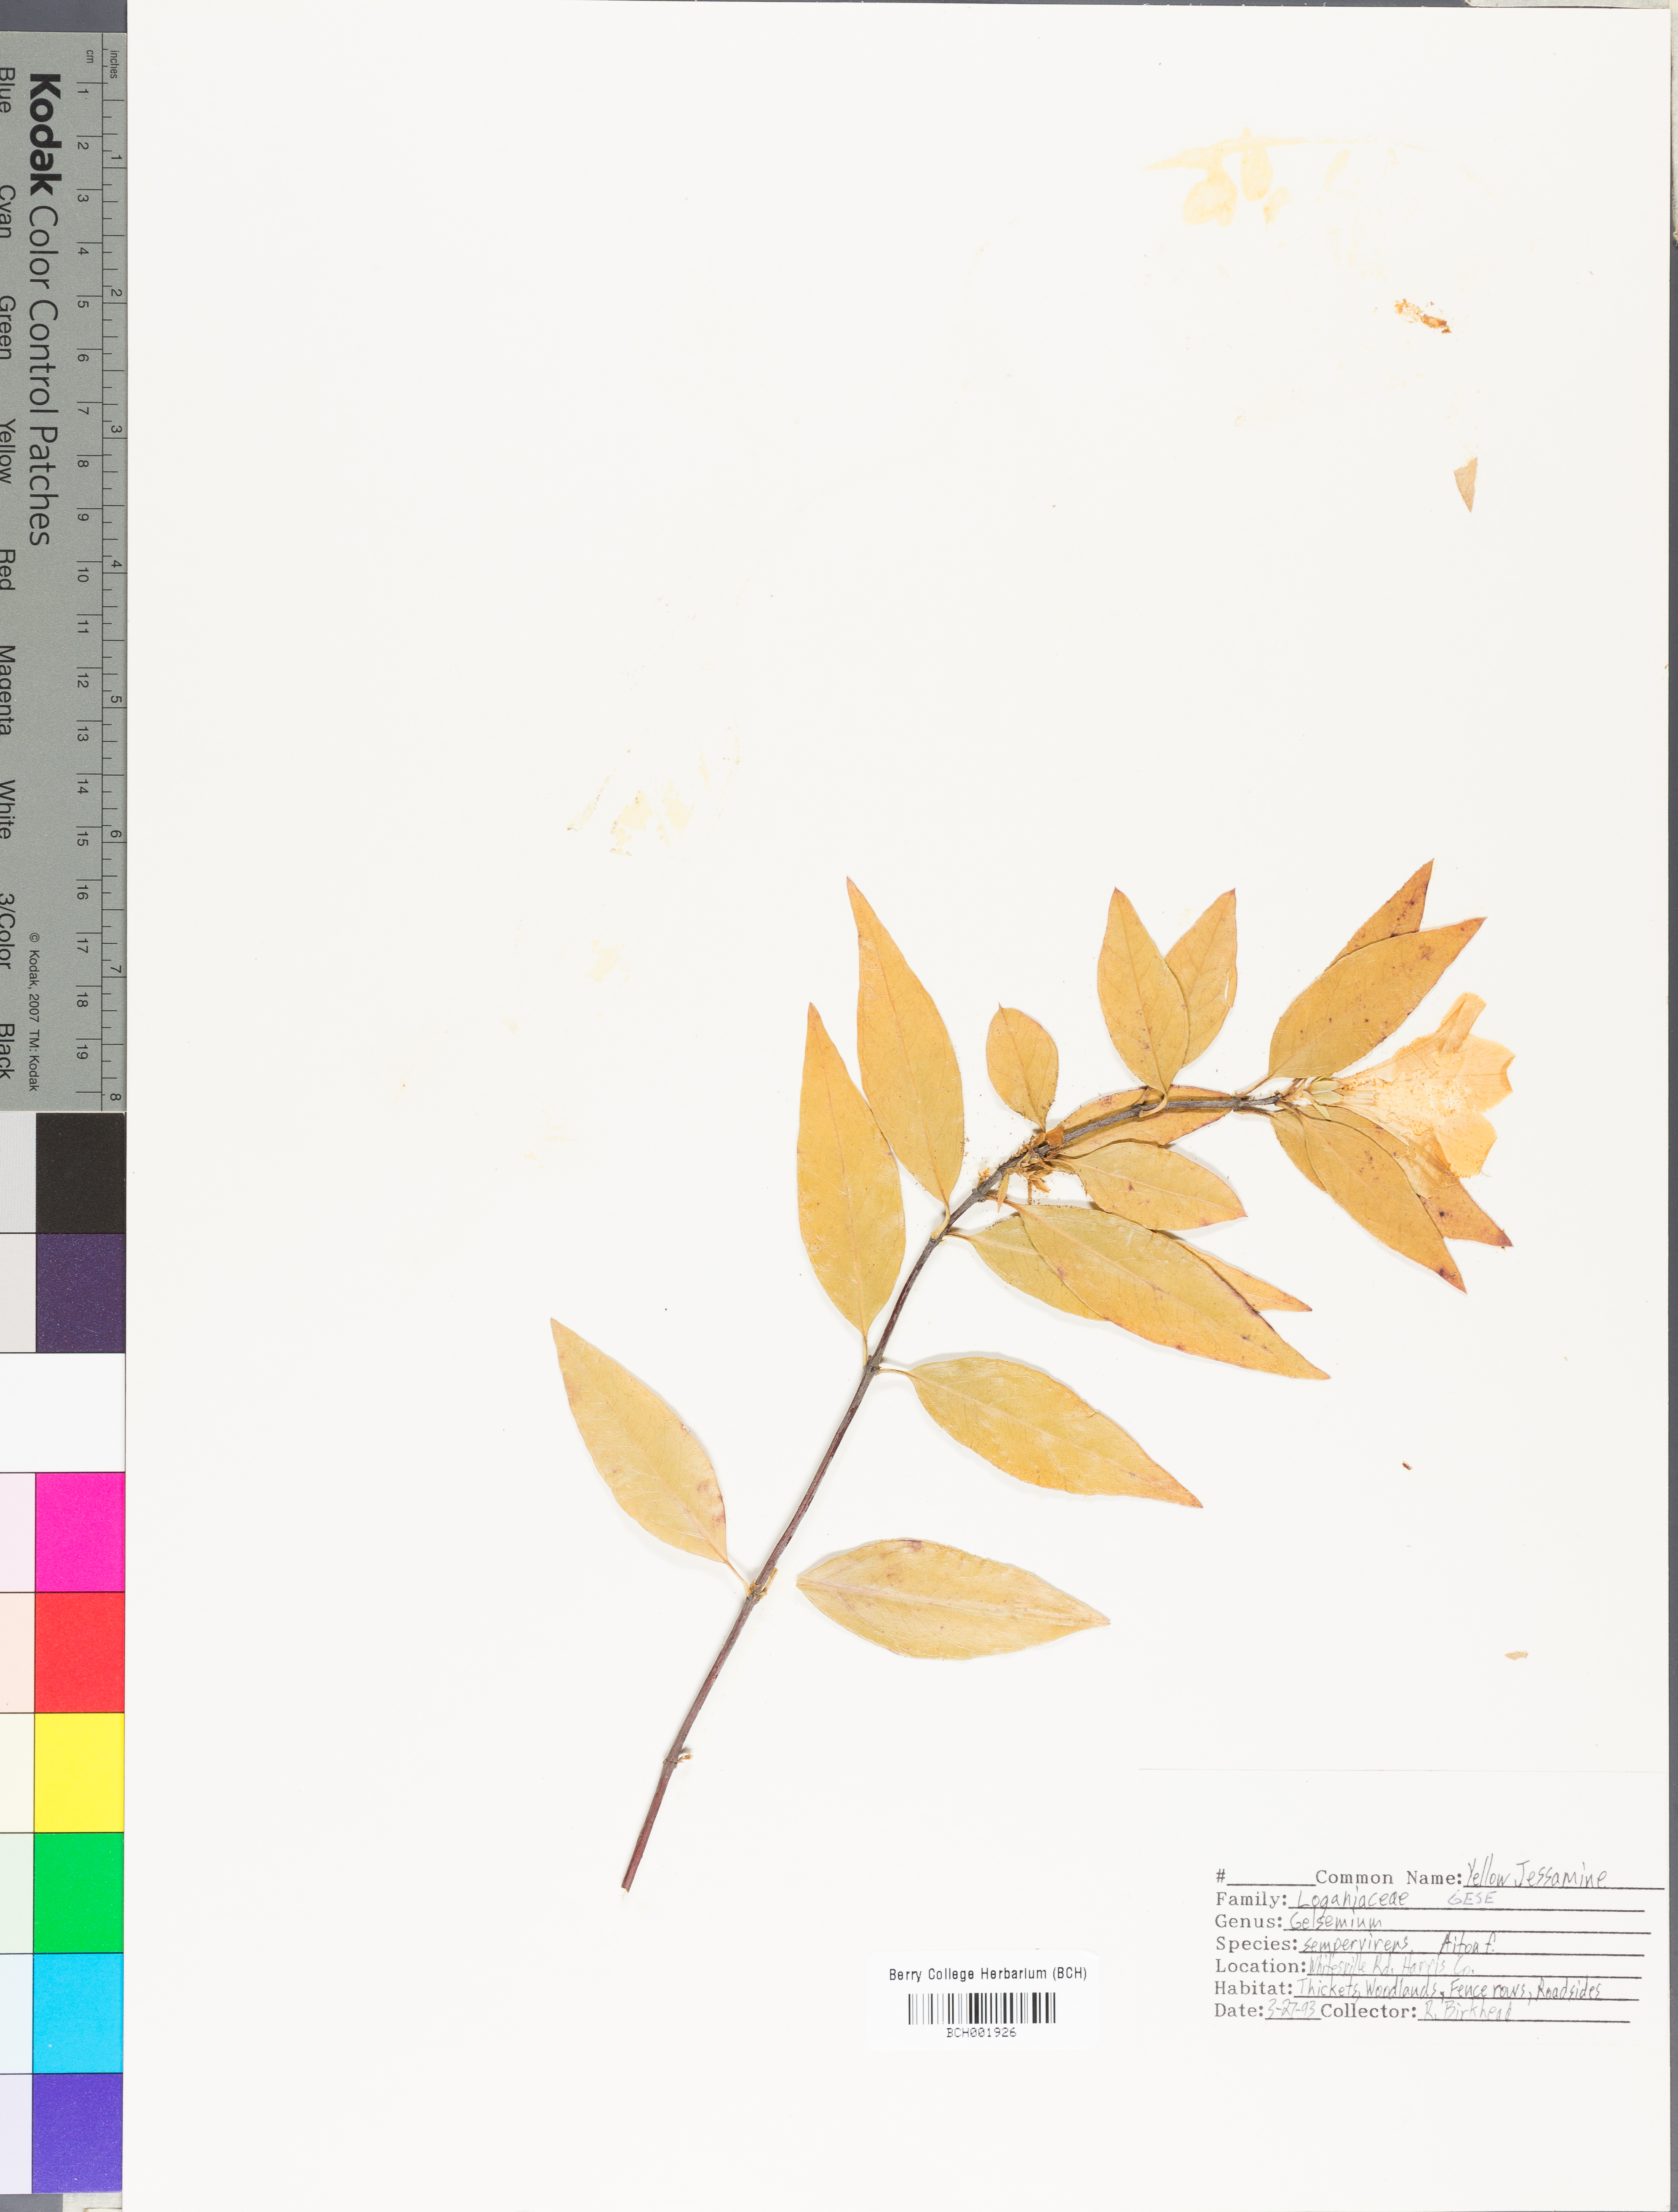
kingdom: Plantae
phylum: Tracheophyta
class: Magnoliopsida
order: Gentianales
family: Gelsemiaceae
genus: Gelsemium
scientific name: Gelsemium sempervirens
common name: Carolina-jasmine
